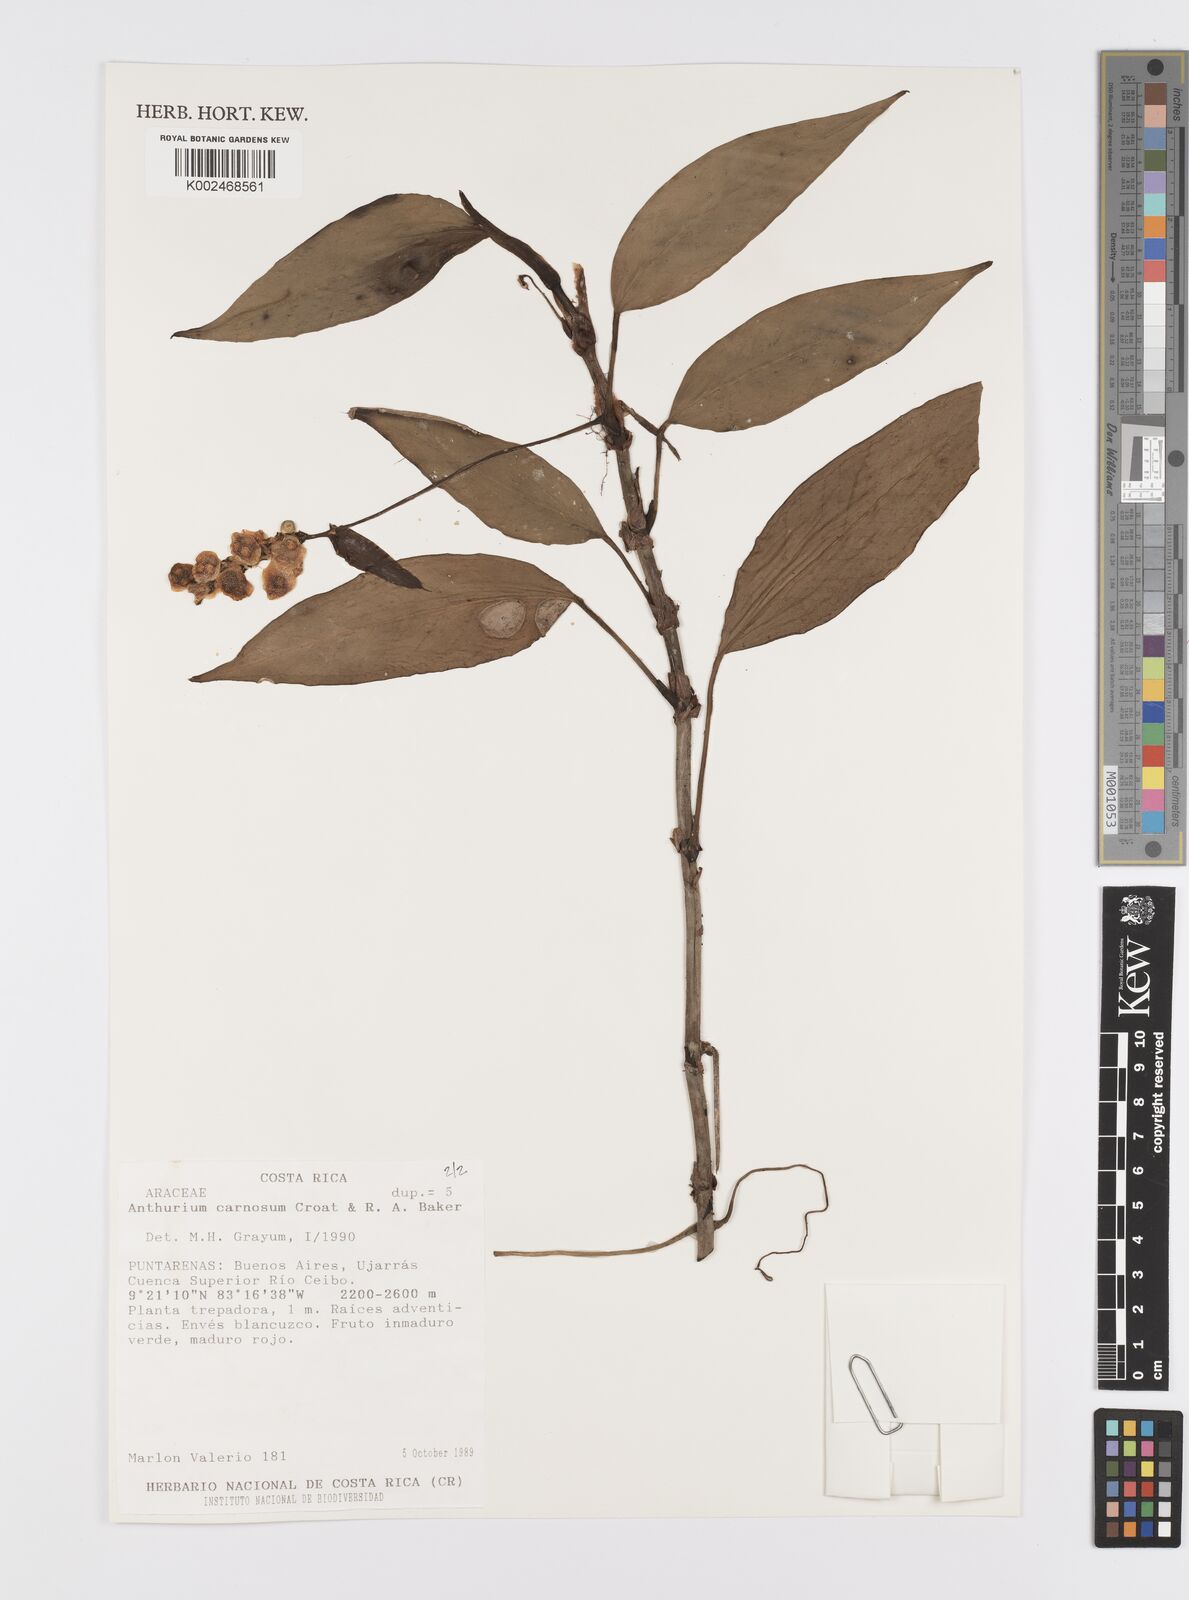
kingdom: Plantae
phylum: Tracheophyta
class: Liliopsida
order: Alismatales
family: Araceae
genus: Anthurium
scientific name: Anthurium carnosum
